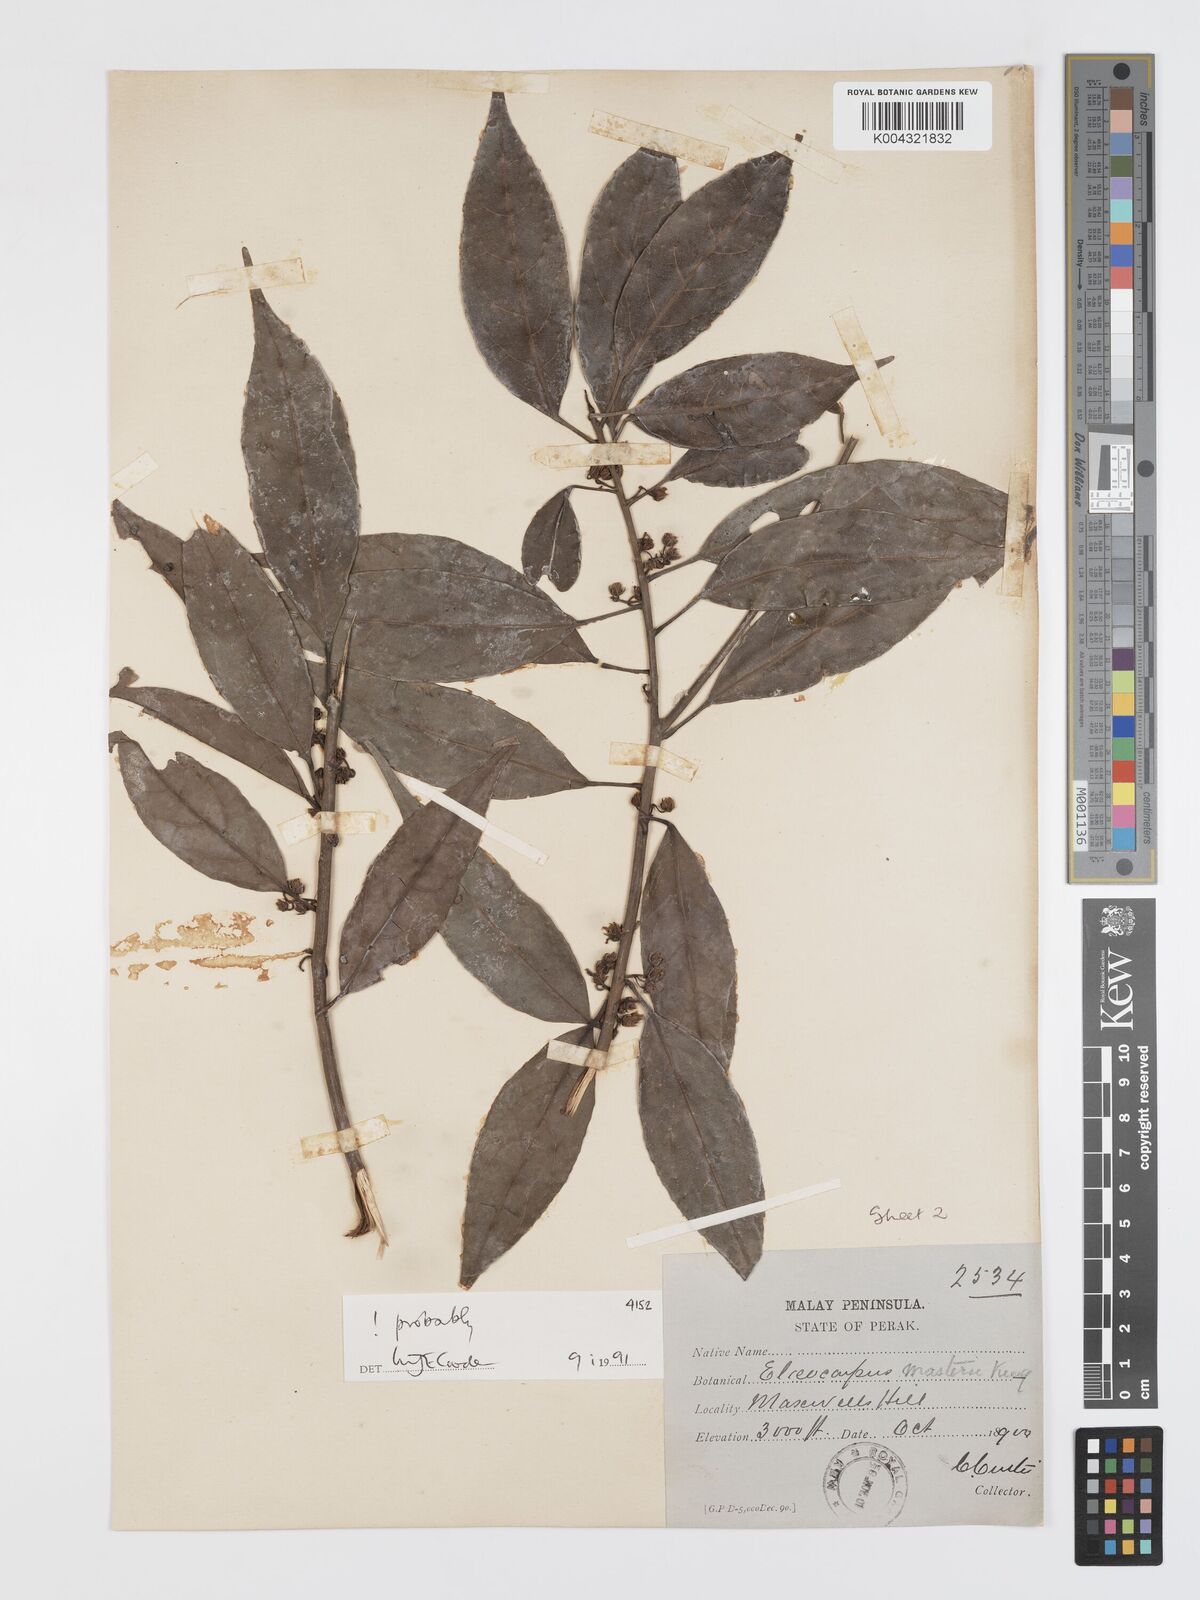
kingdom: Plantae
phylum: Tracheophyta
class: Magnoliopsida
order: Oxalidales
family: Elaeocarpaceae
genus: Elaeocarpus
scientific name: Elaeocarpus mastersii
